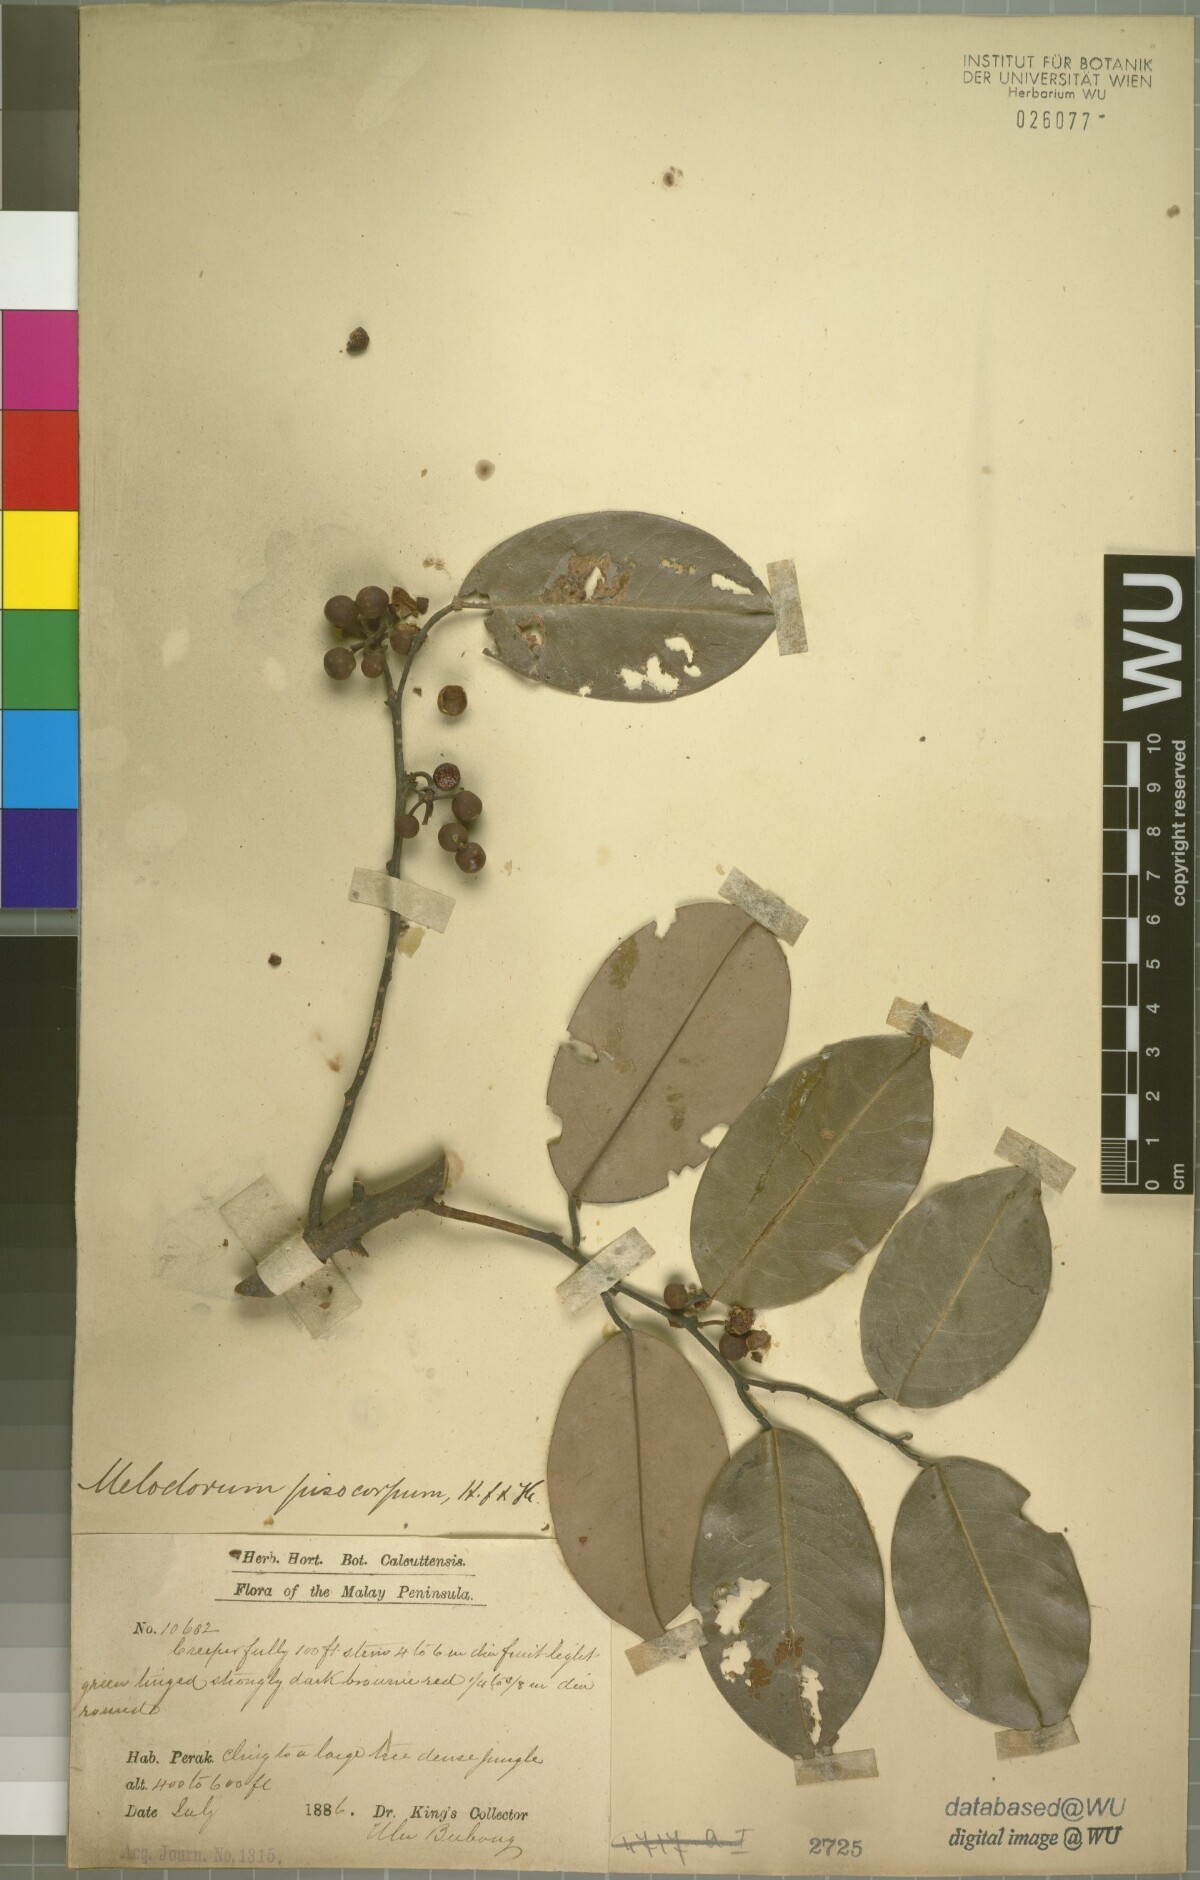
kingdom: Plantae
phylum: Tracheophyta
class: Magnoliopsida
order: Magnoliales
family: Annonaceae
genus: Orophea
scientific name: Orophea hastata
